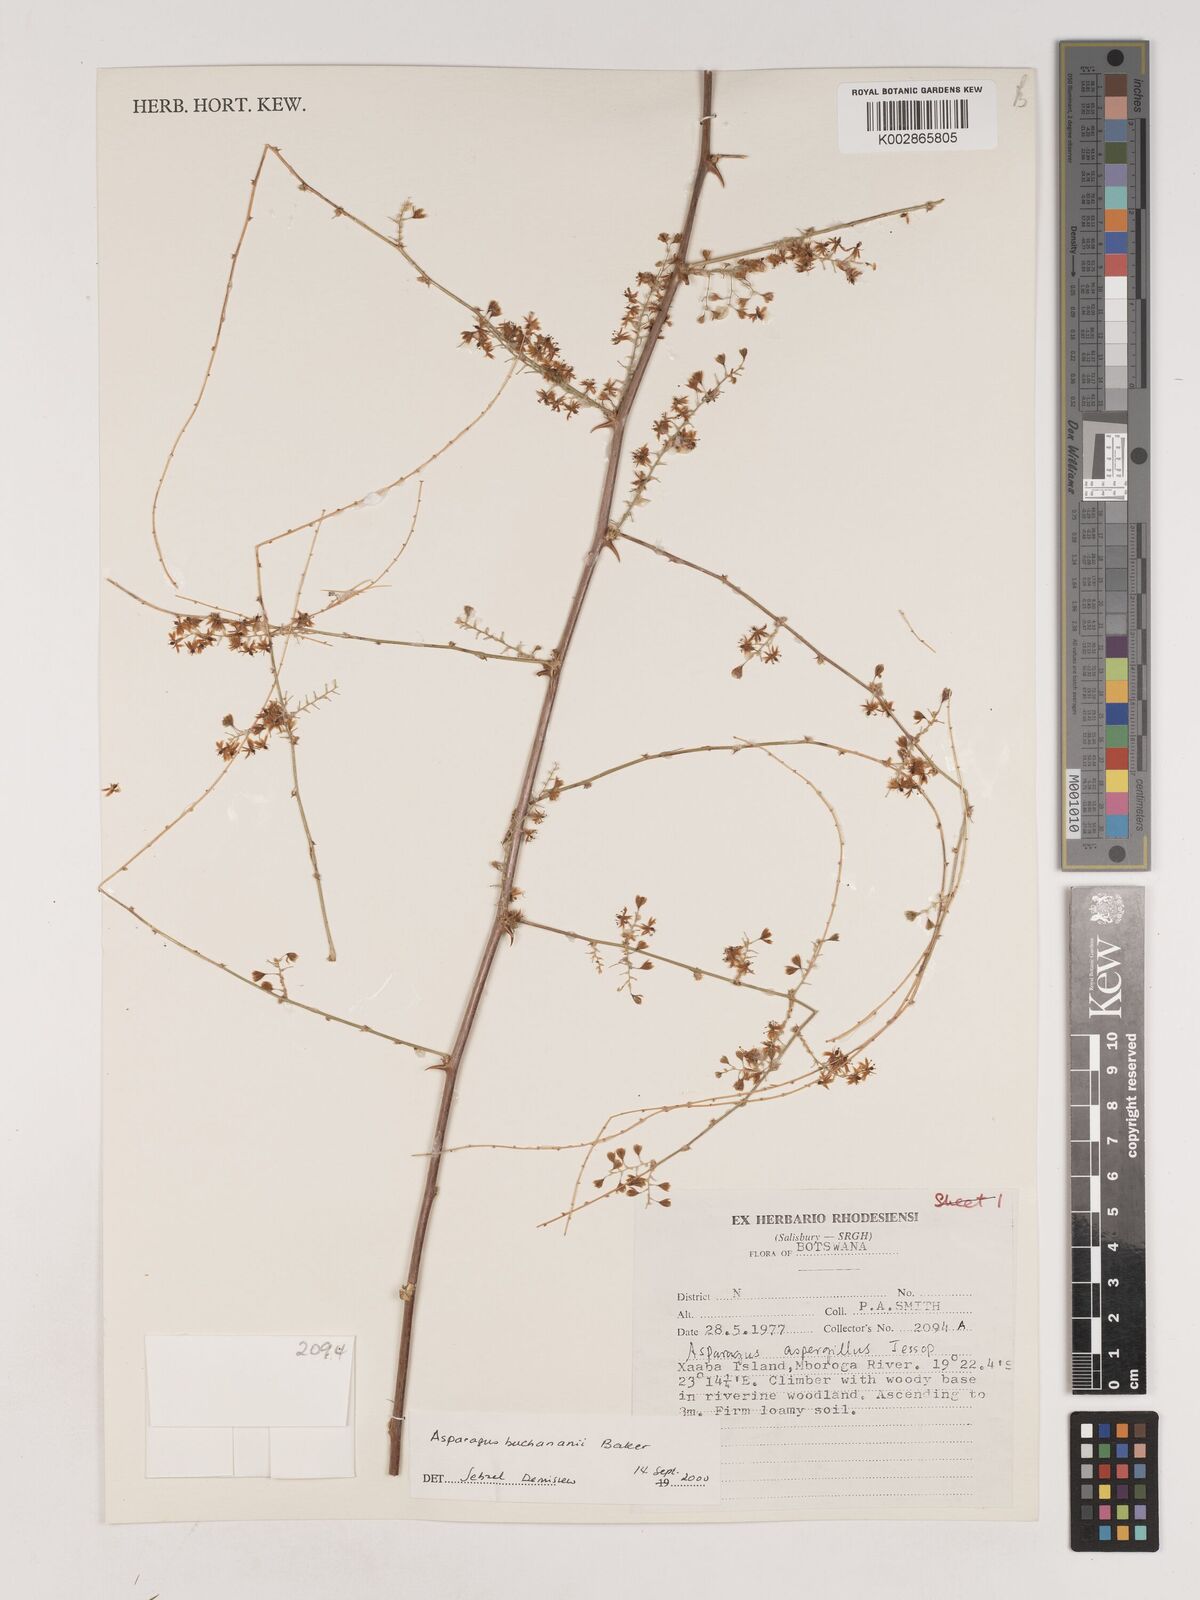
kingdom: Plantae
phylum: Tracheophyta
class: Liliopsida
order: Asparagales
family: Asparagaceae
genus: Asparagus
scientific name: Asparagus buchananii
